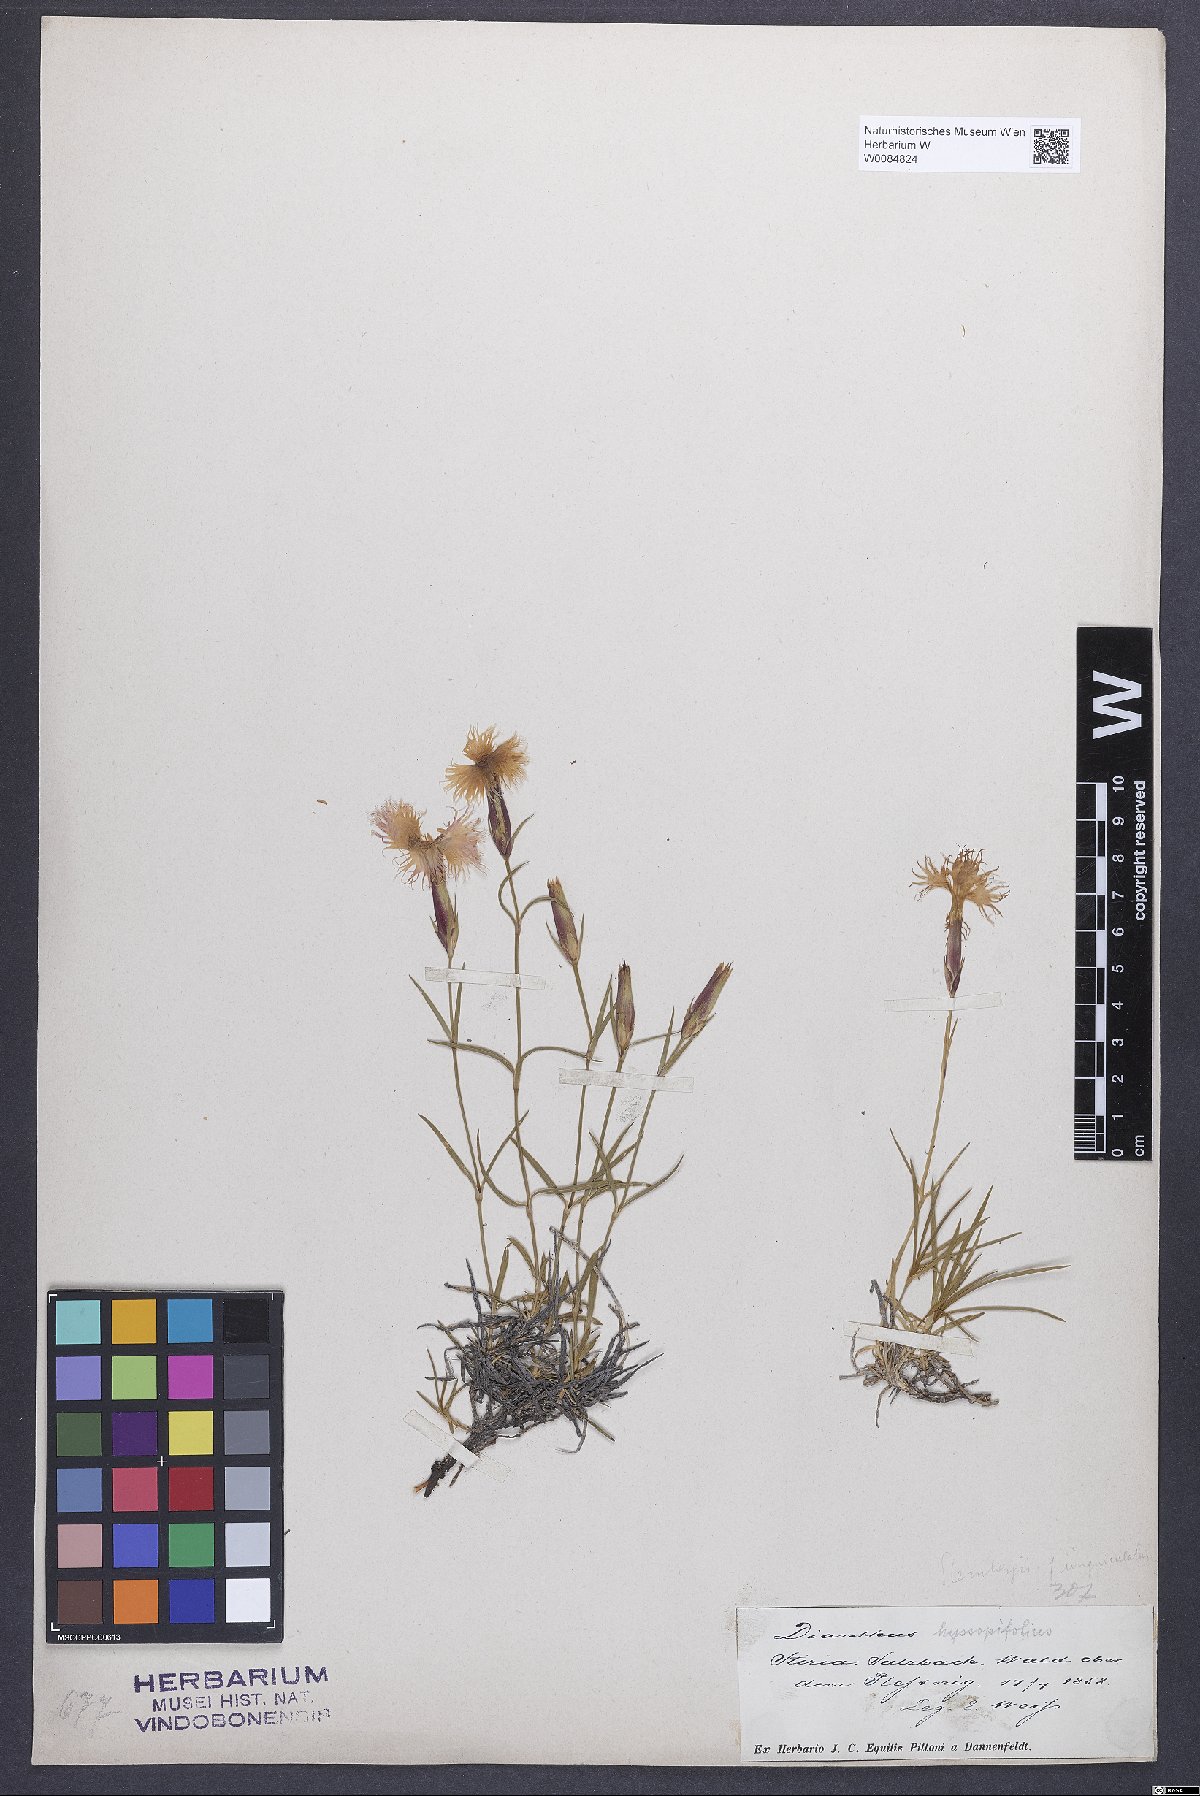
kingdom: Plantae
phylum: Tracheophyta
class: Magnoliopsida
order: Caryophyllales
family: Caryophyllaceae
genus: Dianthus
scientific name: Dianthus monspessulanus
